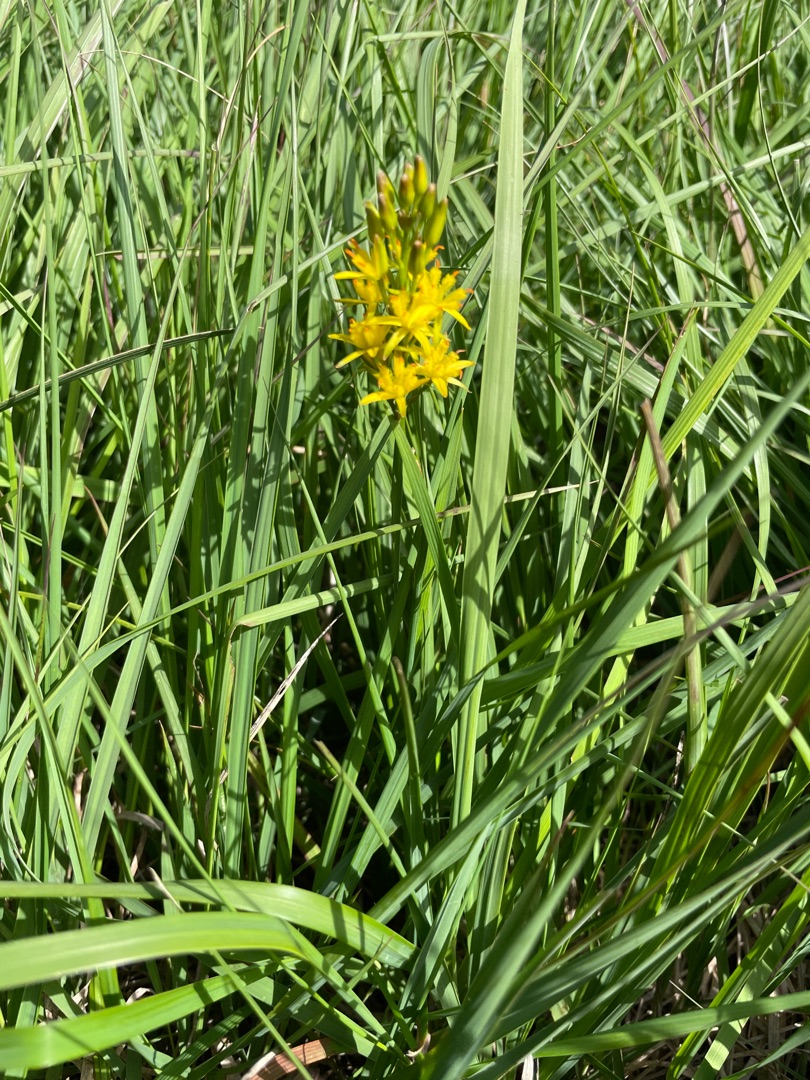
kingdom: Plantae
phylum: Tracheophyta
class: Liliopsida
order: Dioscoreales
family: Nartheciaceae
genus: Narthecium
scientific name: Narthecium ossifragum
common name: Benbræk
